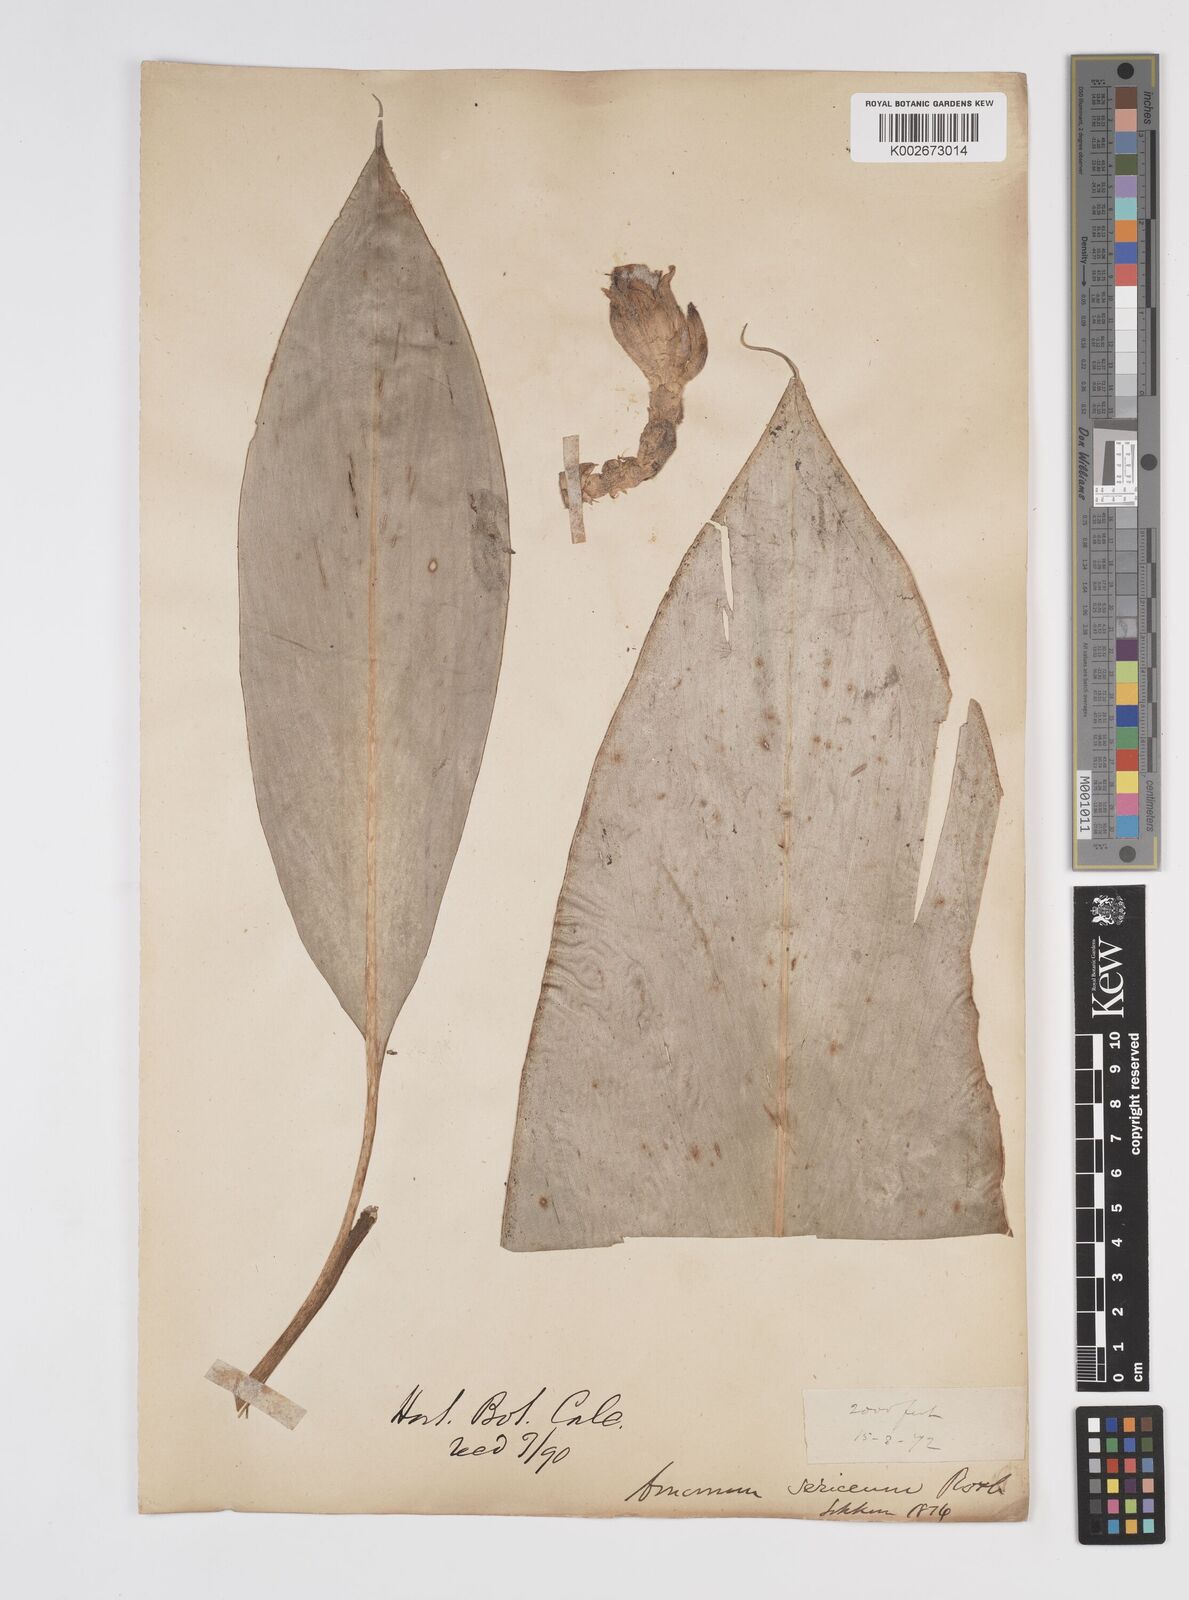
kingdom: Plantae
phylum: Tracheophyta
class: Liliopsida
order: Zingiberales
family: Zingiberaceae
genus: Amomum
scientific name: Amomum dealbatum
